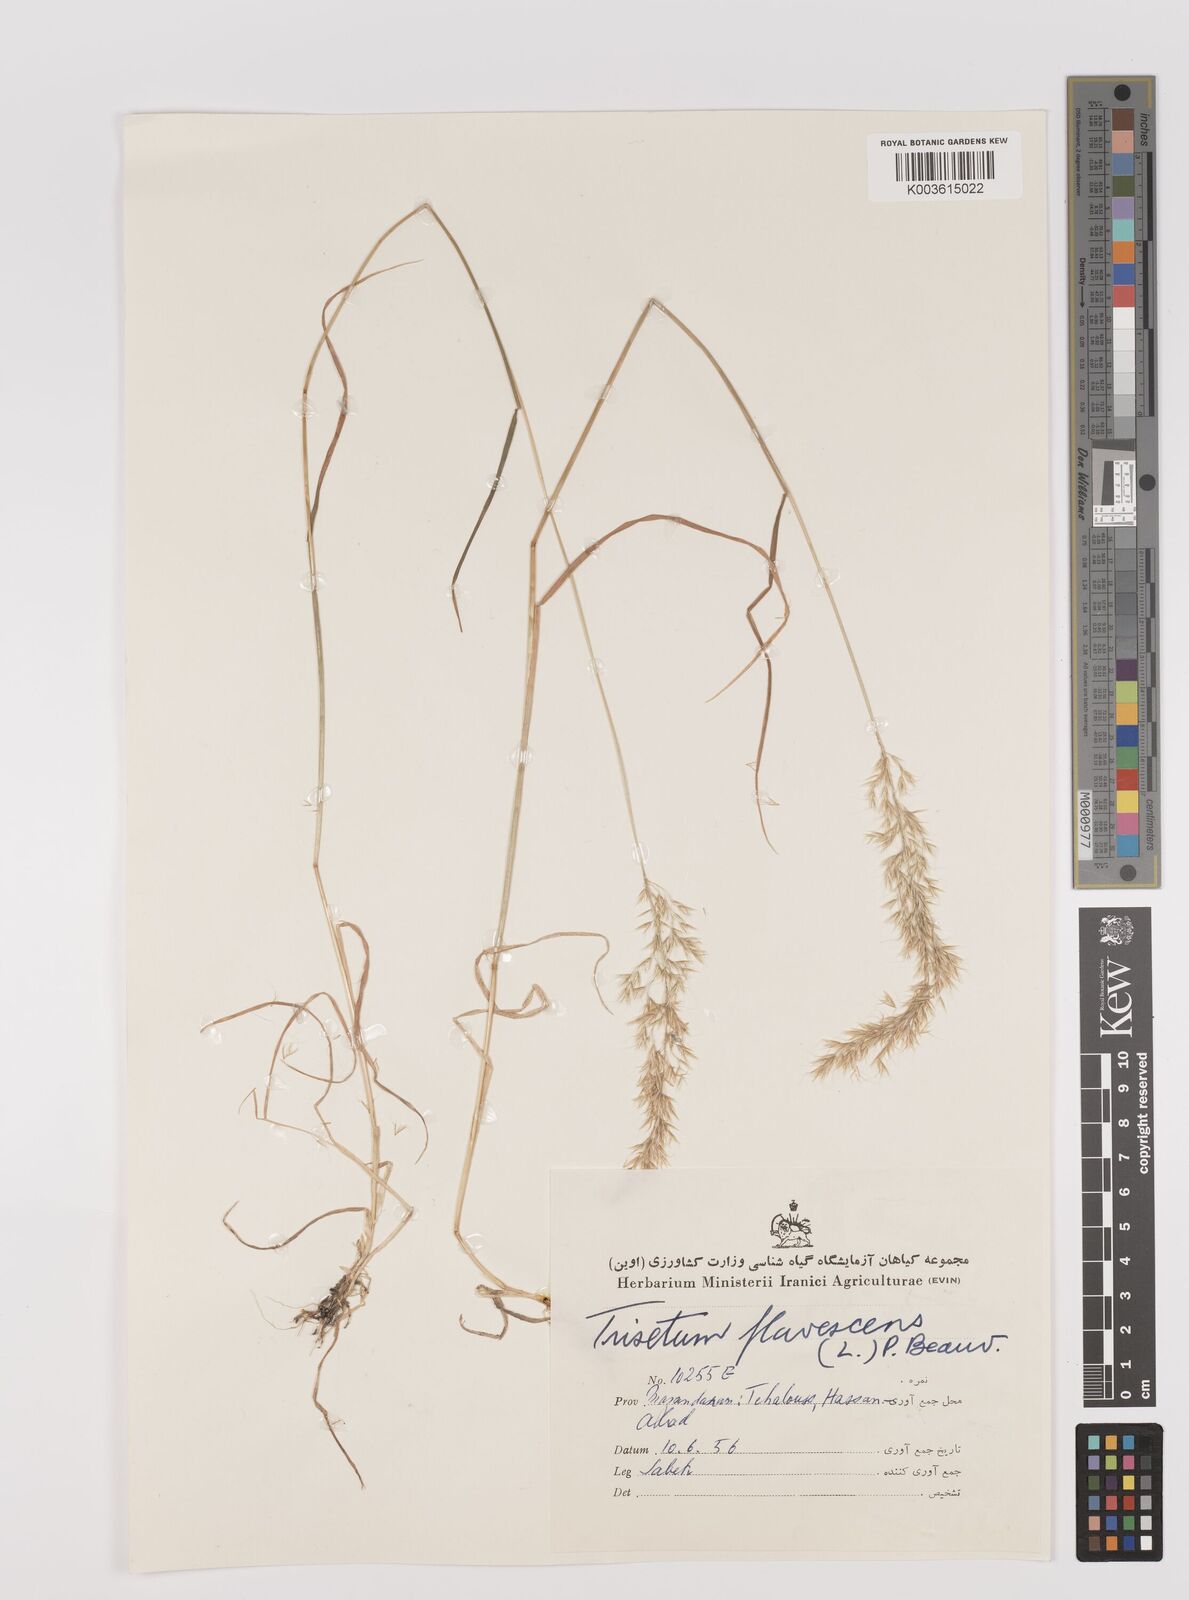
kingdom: Plantae
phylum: Tracheophyta
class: Liliopsida
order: Poales
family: Poaceae
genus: Trisetum
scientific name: Trisetum flavescens
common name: Yellow oat-grass
